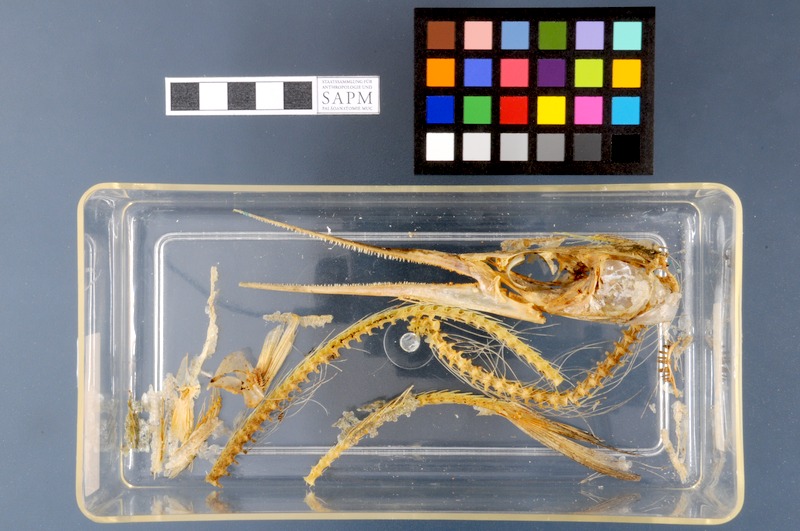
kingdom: Animalia
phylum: Chordata
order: Beloniformes
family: Belonidae
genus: Belone
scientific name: Belone belone
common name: Garfish
